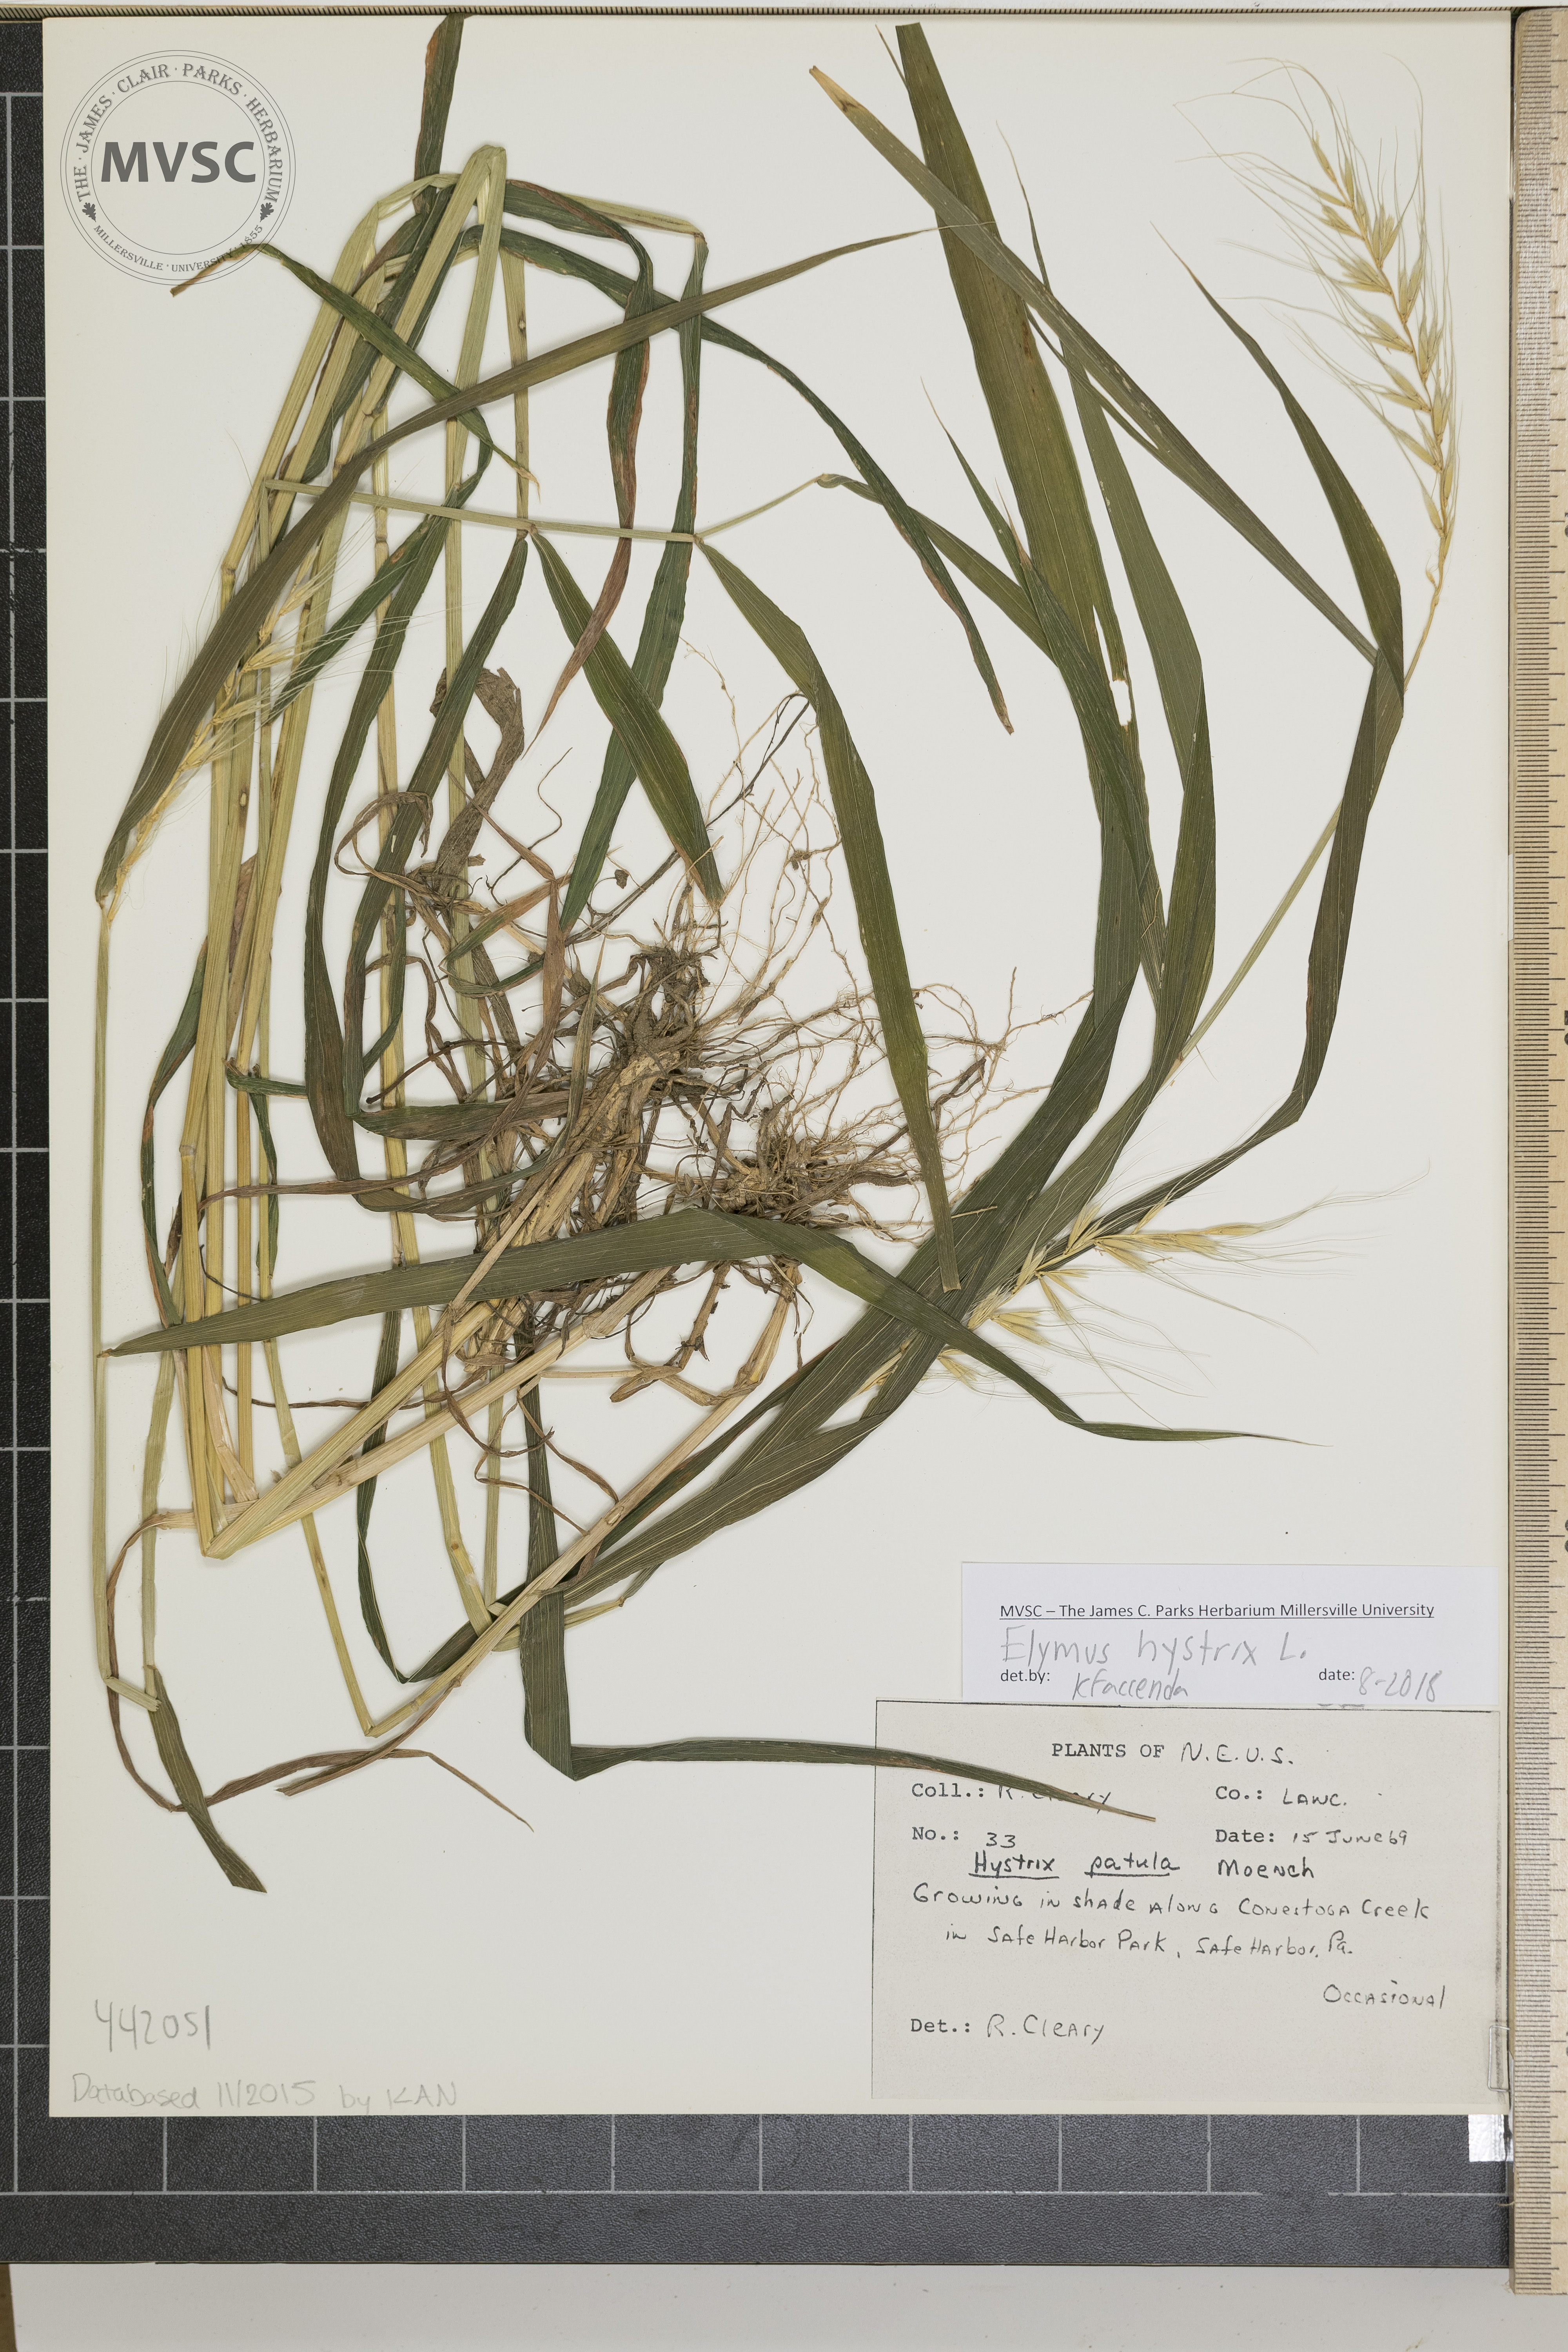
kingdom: Plantae
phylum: Tracheophyta
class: Liliopsida
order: Poales
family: Poaceae
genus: Elymus
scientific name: Elymus hystrix
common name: Bottlebrush grass
